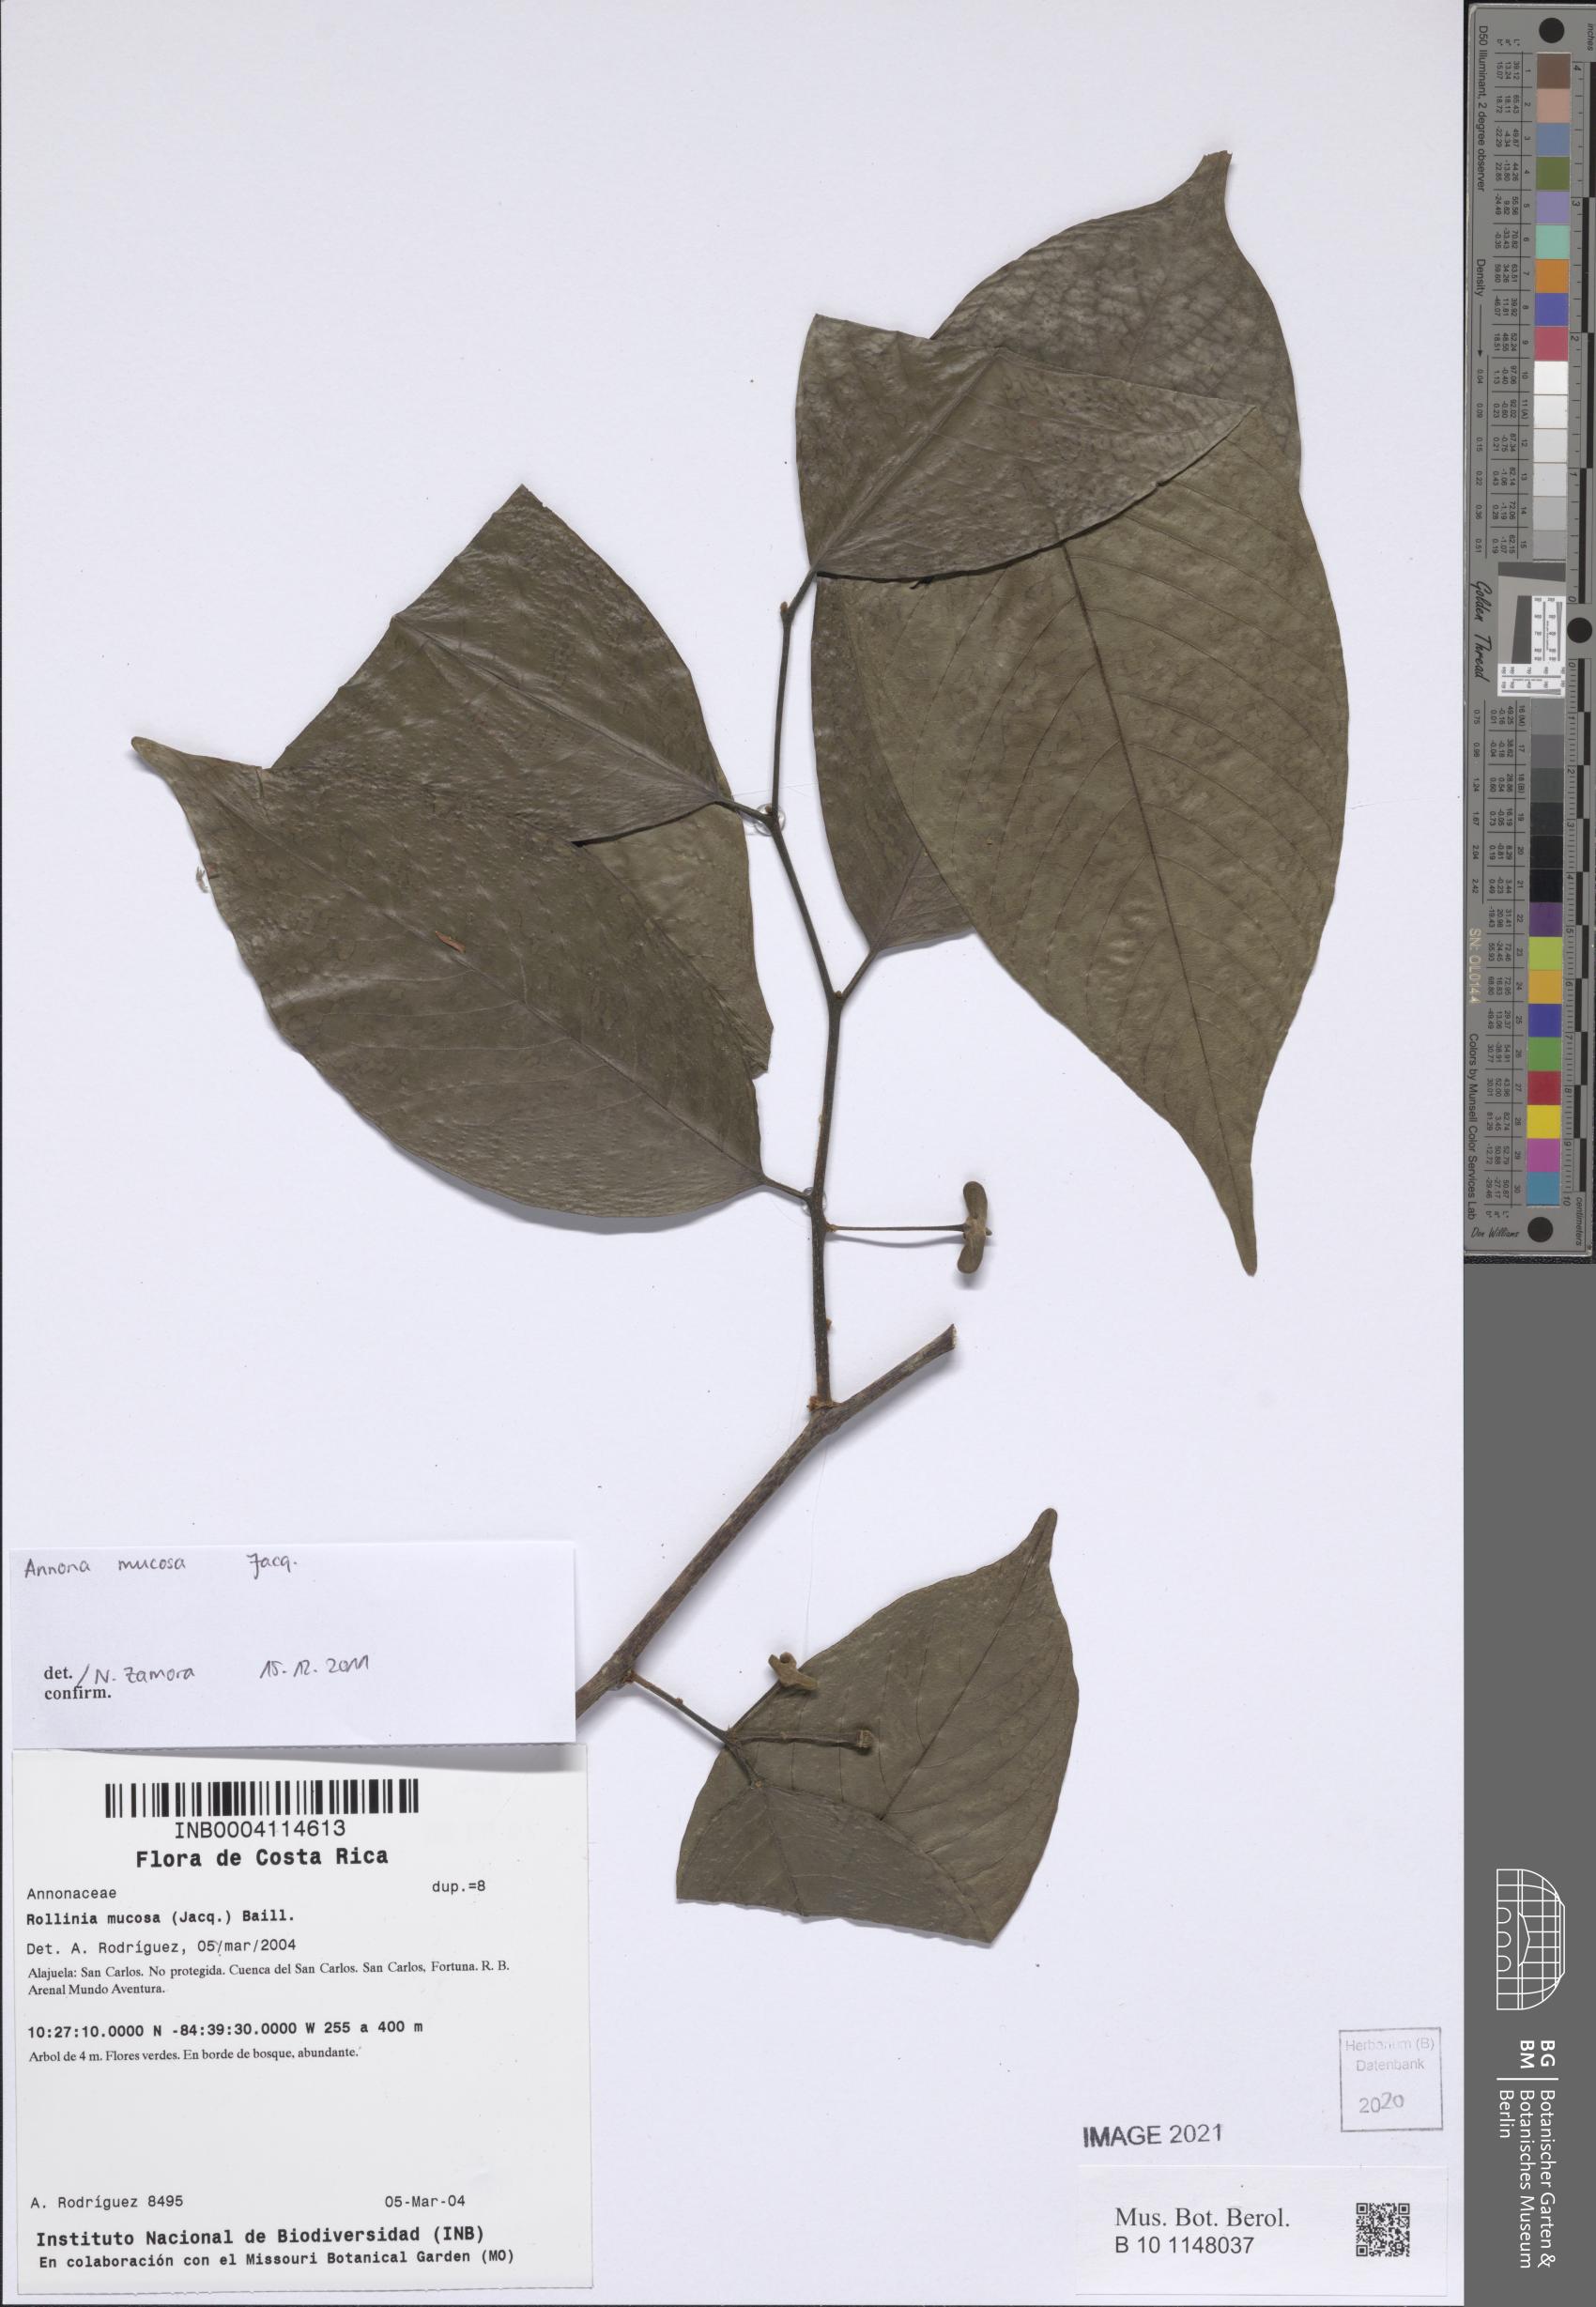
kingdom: Plantae
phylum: Tracheophyta
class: Magnoliopsida
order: Magnoliales
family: Annonaceae
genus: Annona
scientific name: Annona mucosa
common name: Sugar apple
